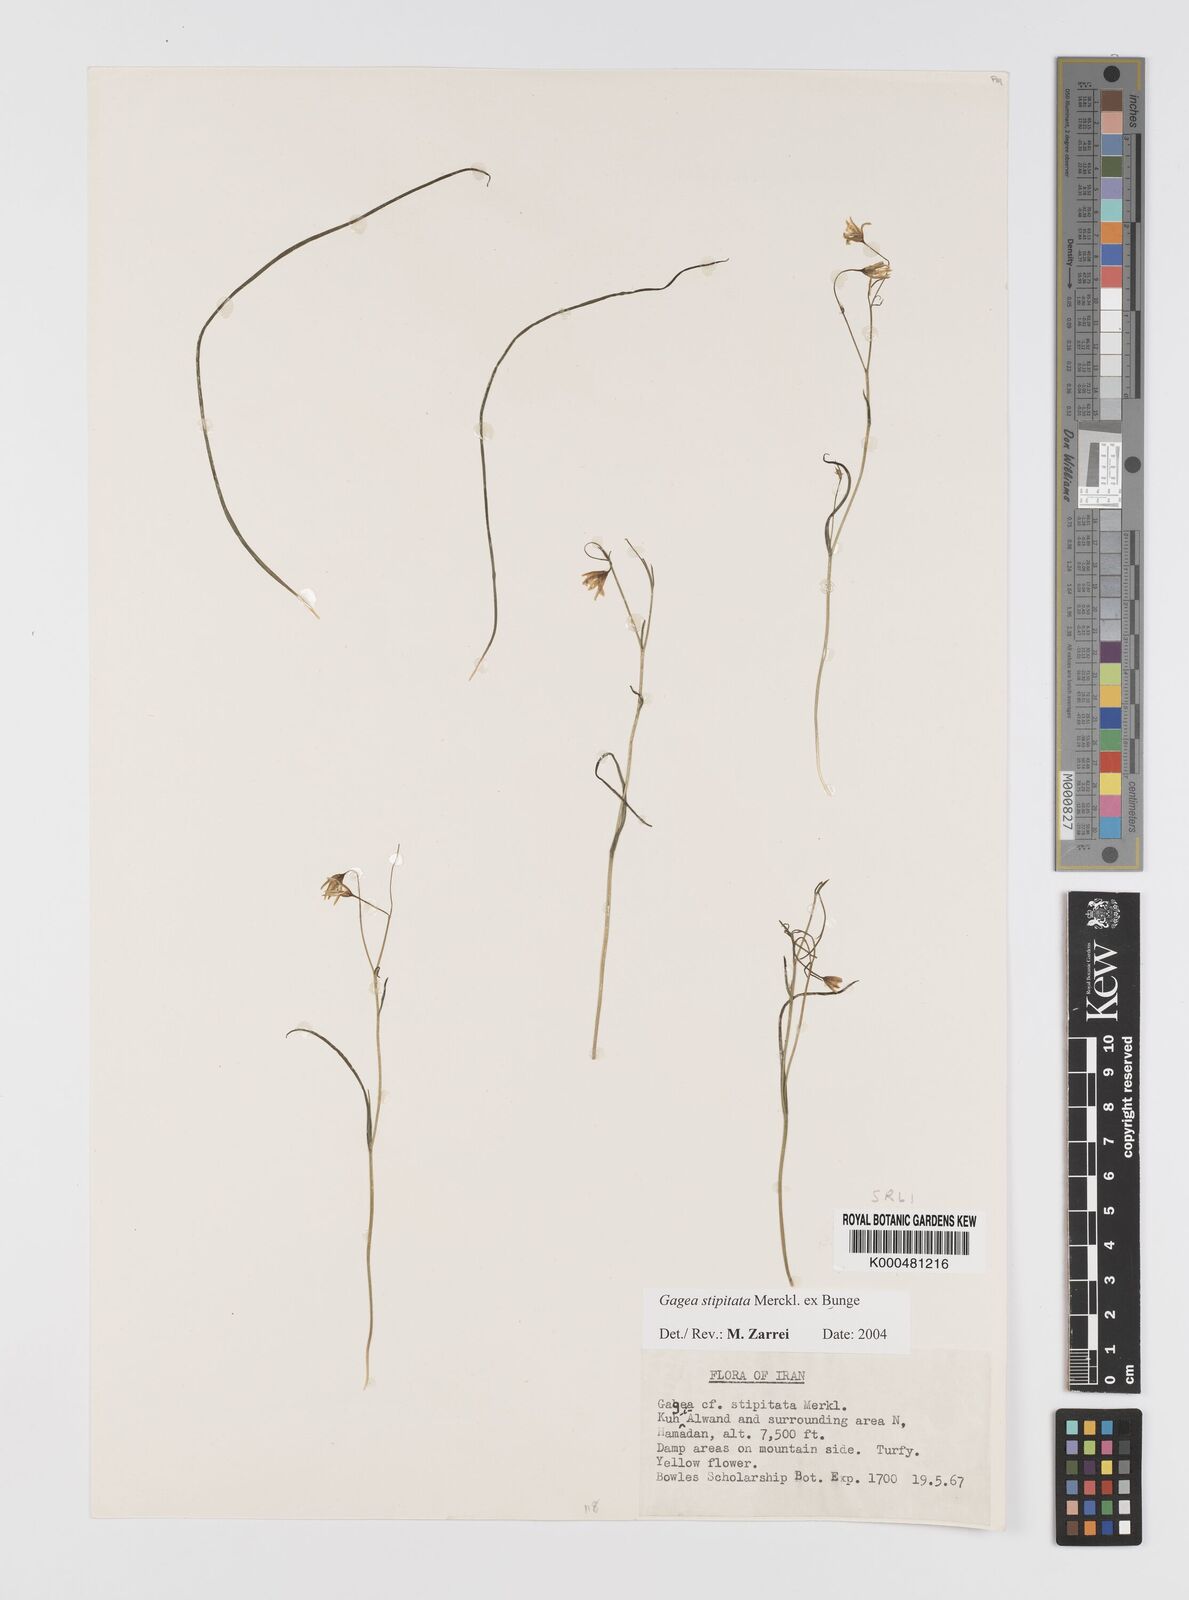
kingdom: Plantae
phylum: Tracheophyta
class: Liliopsida
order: Liliales
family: Liliaceae
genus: Gagea
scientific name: Gagea kunawurensis
